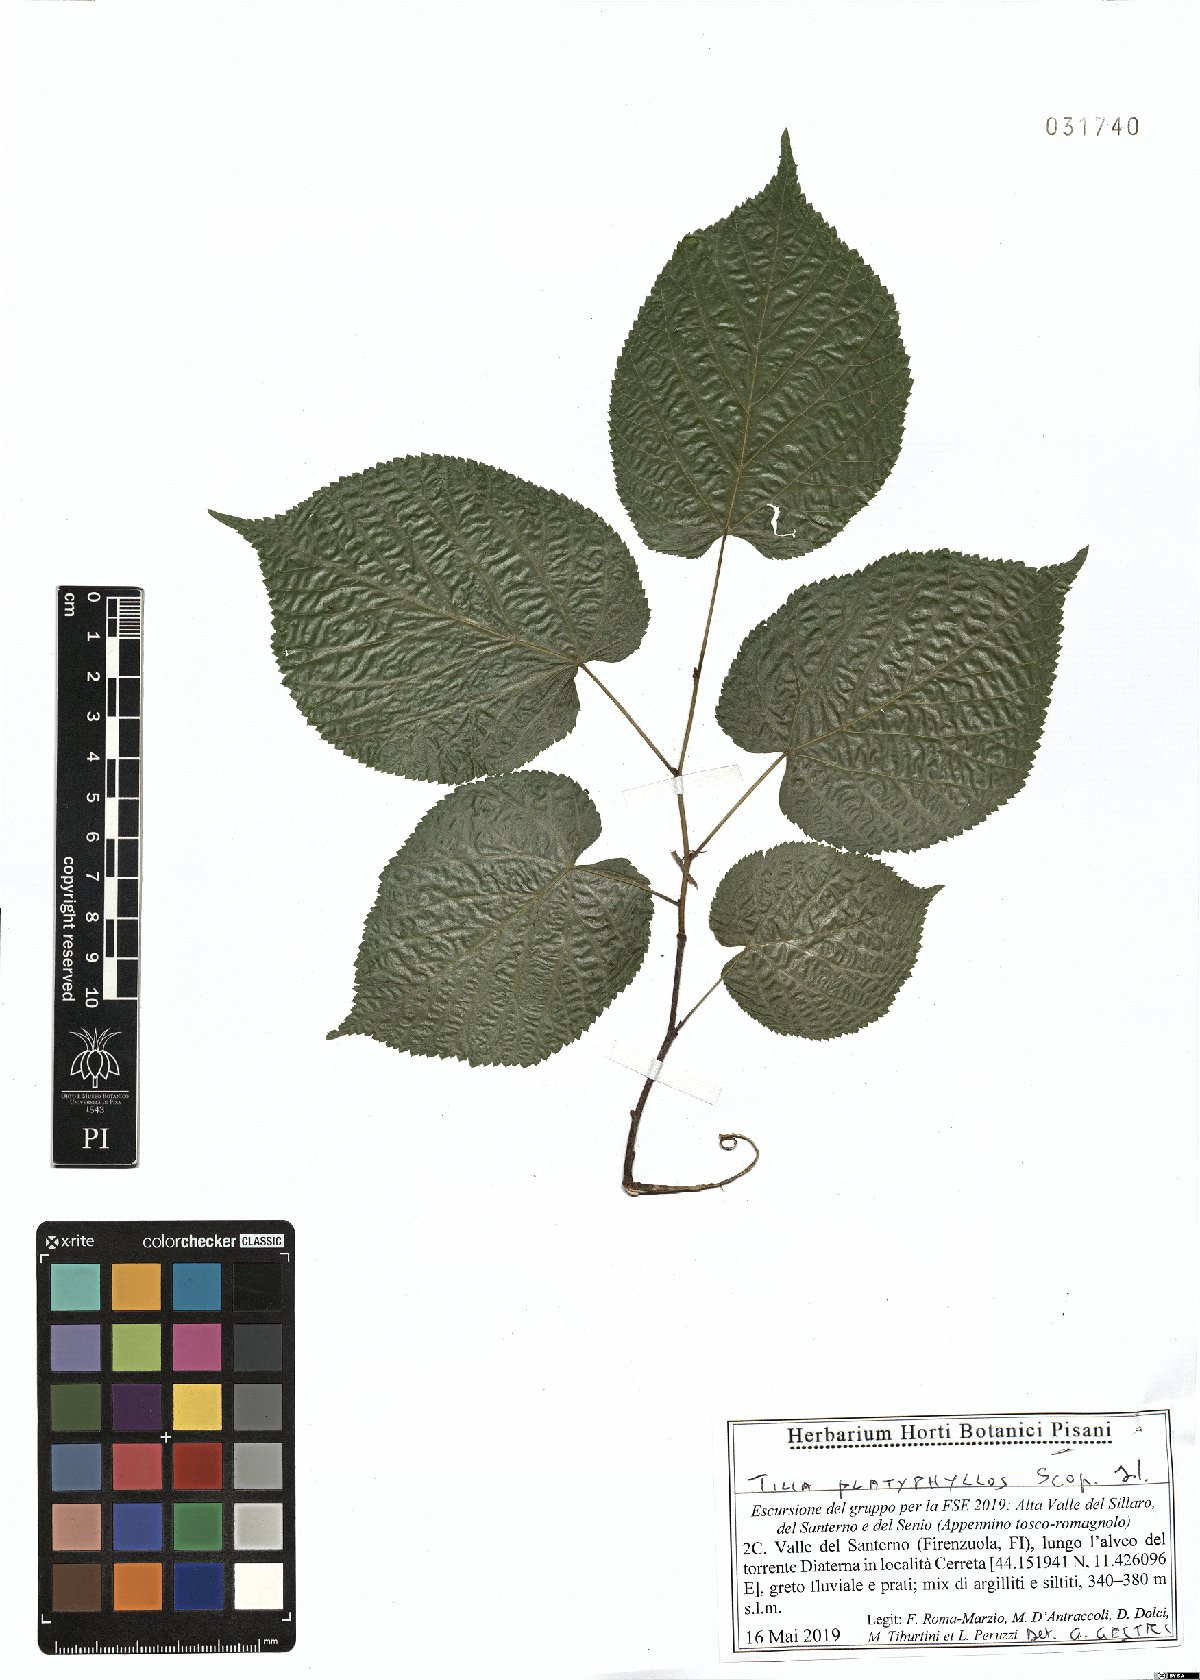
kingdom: Plantae
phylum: Tracheophyta
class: Magnoliopsida
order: Malvales
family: Malvaceae
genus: Tilia
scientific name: Tilia platyphyllos
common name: Large-leaved lime
